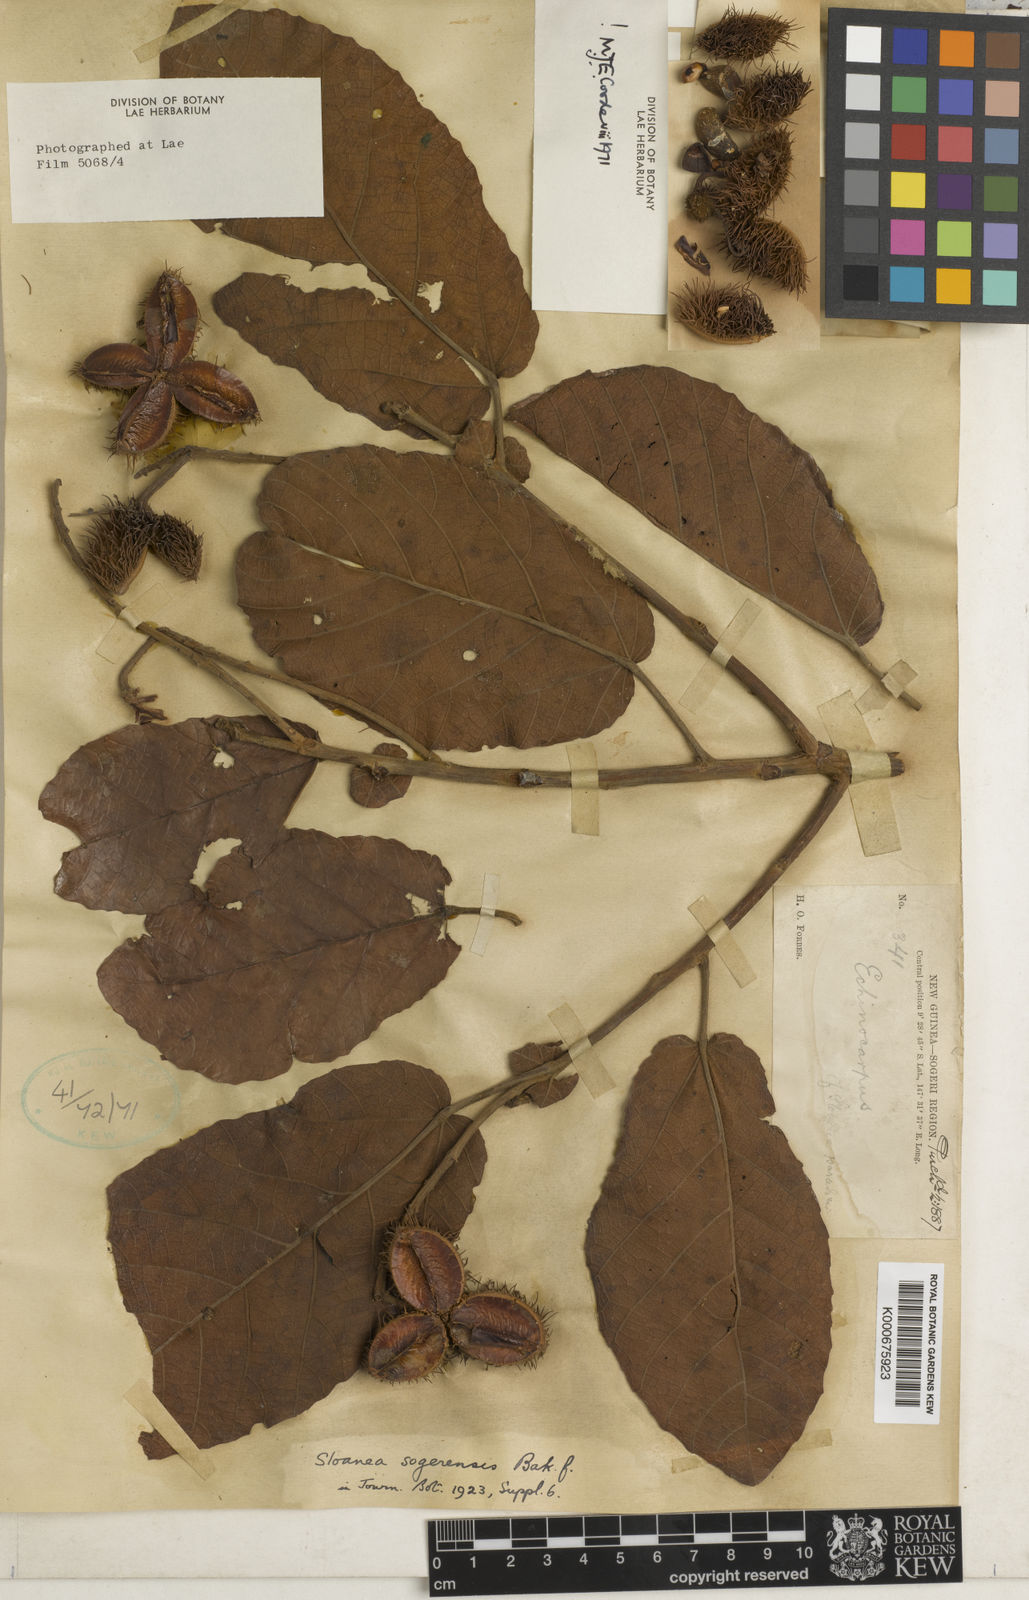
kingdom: Plantae
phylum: Tracheophyta
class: Magnoliopsida
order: Oxalidales
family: Elaeocarpaceae
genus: Sloanea
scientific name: Sloanea sogerensis
